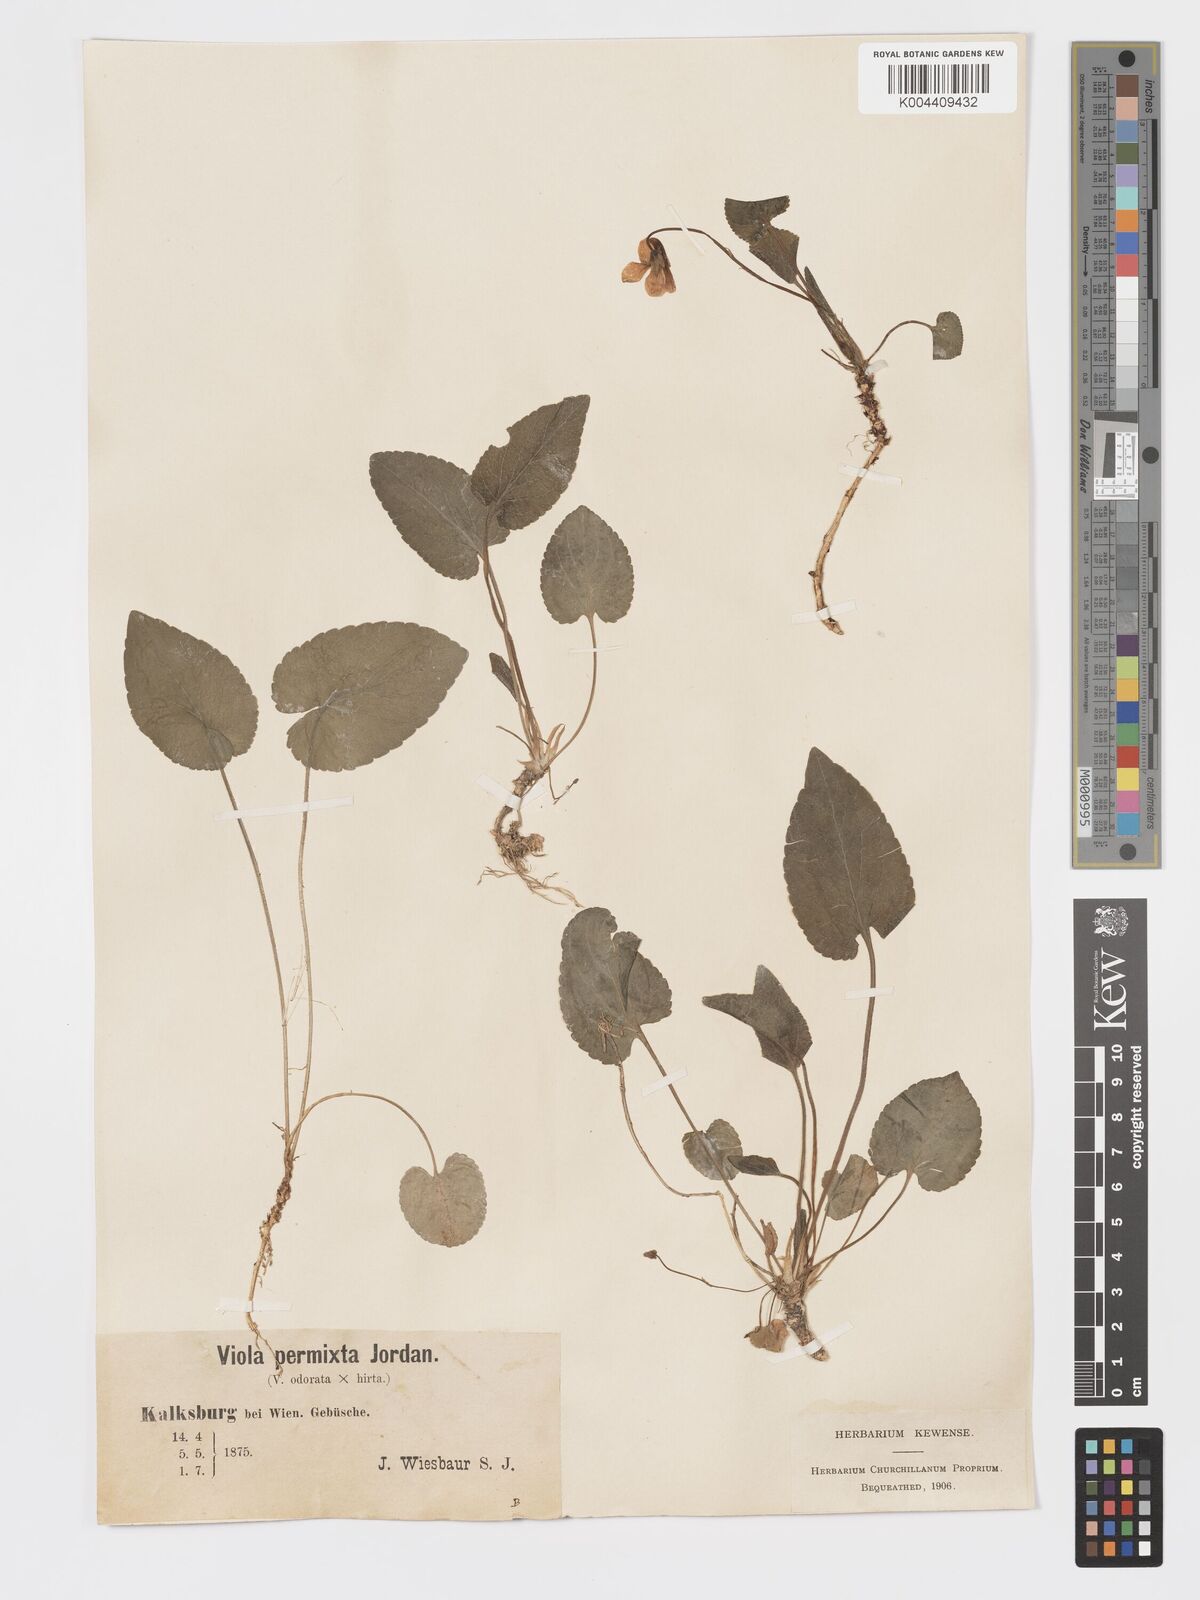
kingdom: Plantae
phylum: Tracheophyta
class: Magnoliopsida
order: Malpighiales
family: Violaceae
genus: Viola
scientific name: Viola kalksburgensis
